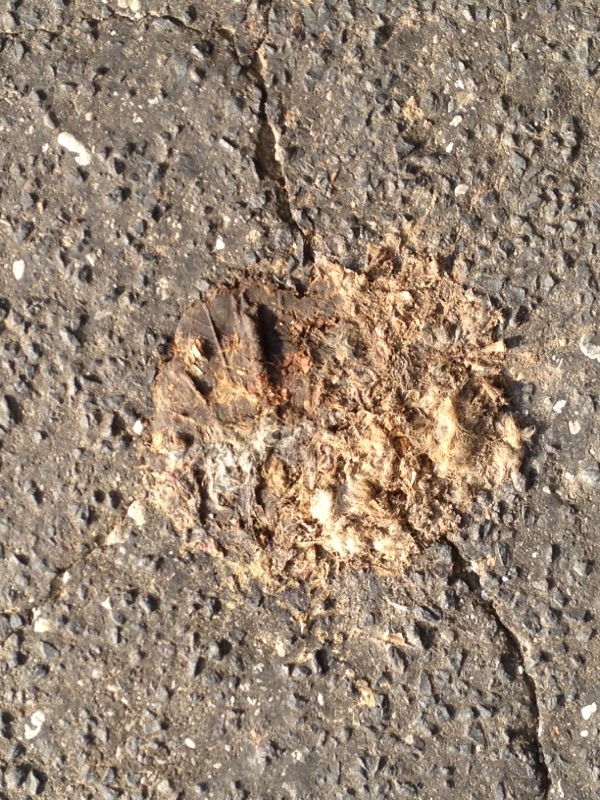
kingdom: Animalia
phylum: Chordata
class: Mammalia
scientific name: Mammalia
